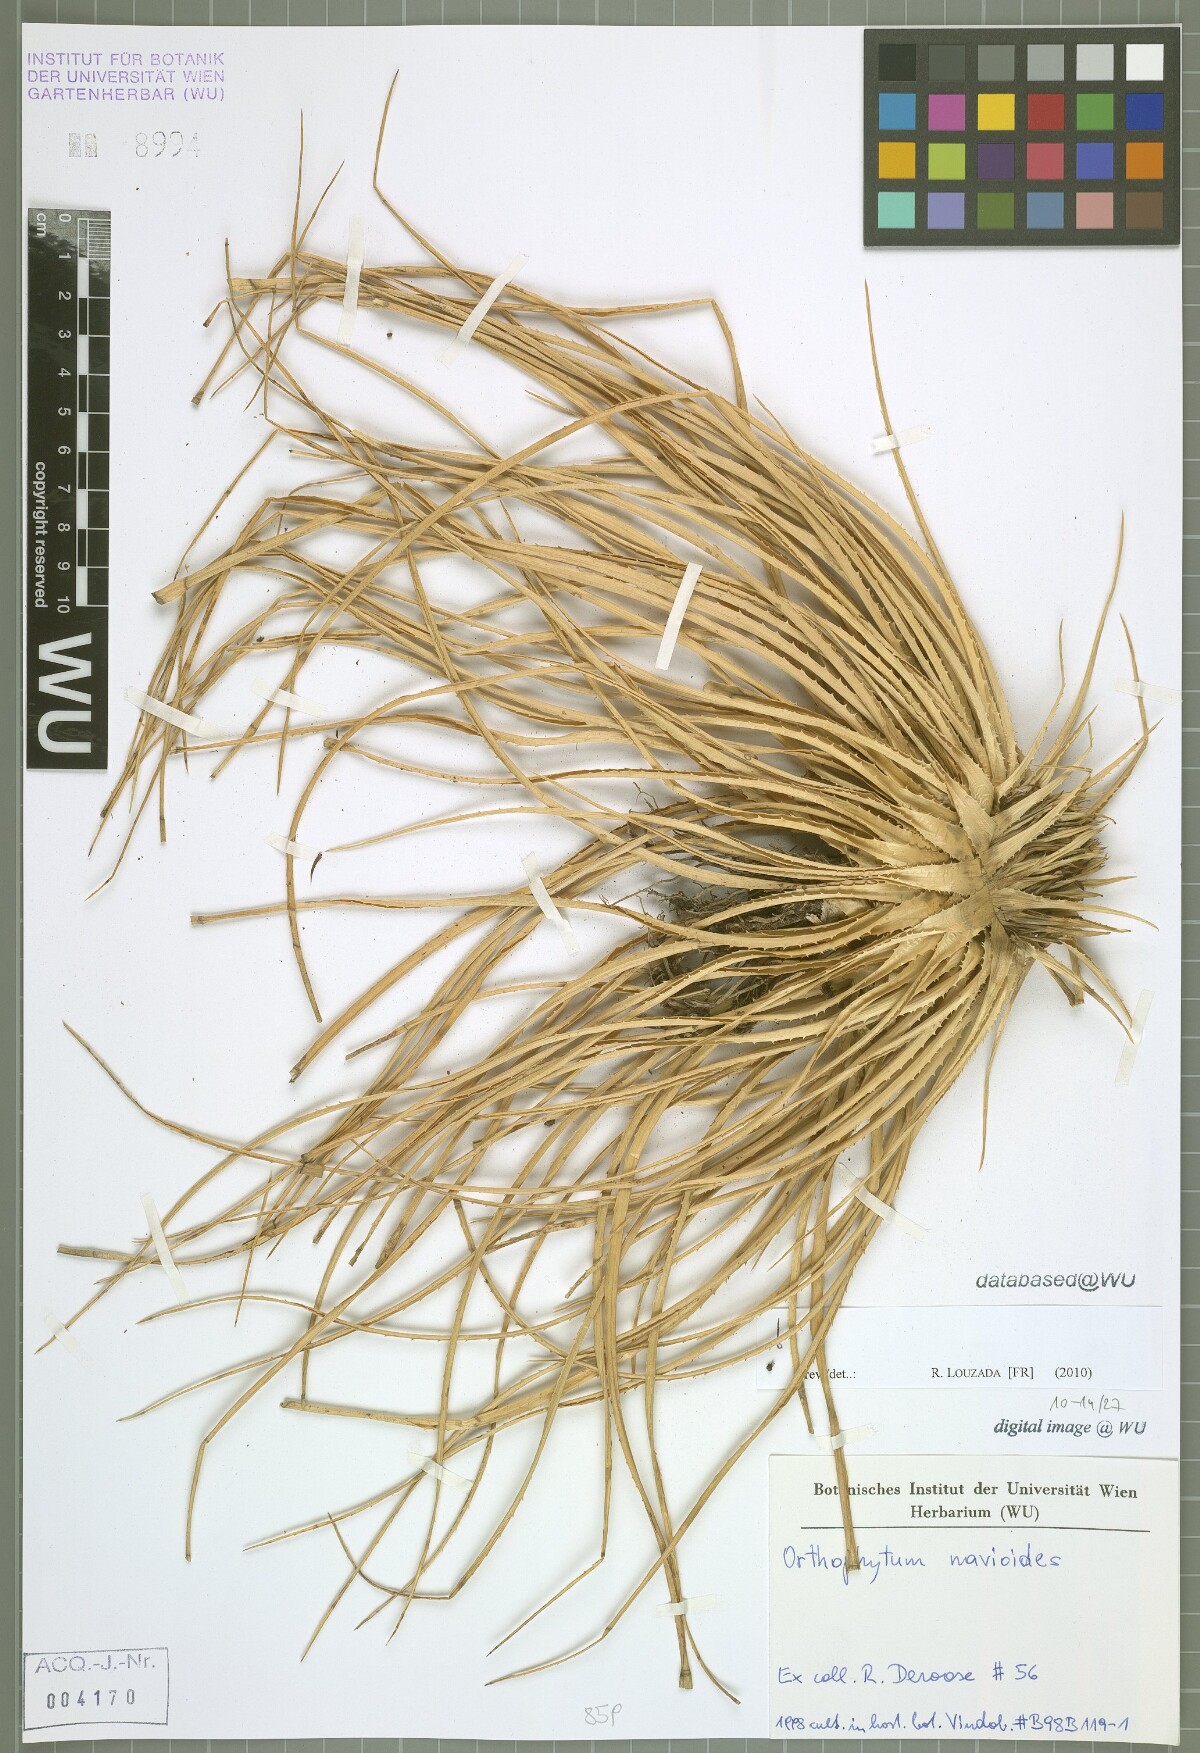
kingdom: Plantae
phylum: Tracheophyta
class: Liliopsida
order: Poales
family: Bromeliaceae
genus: Sincoraea
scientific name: Sincoraea navioides
